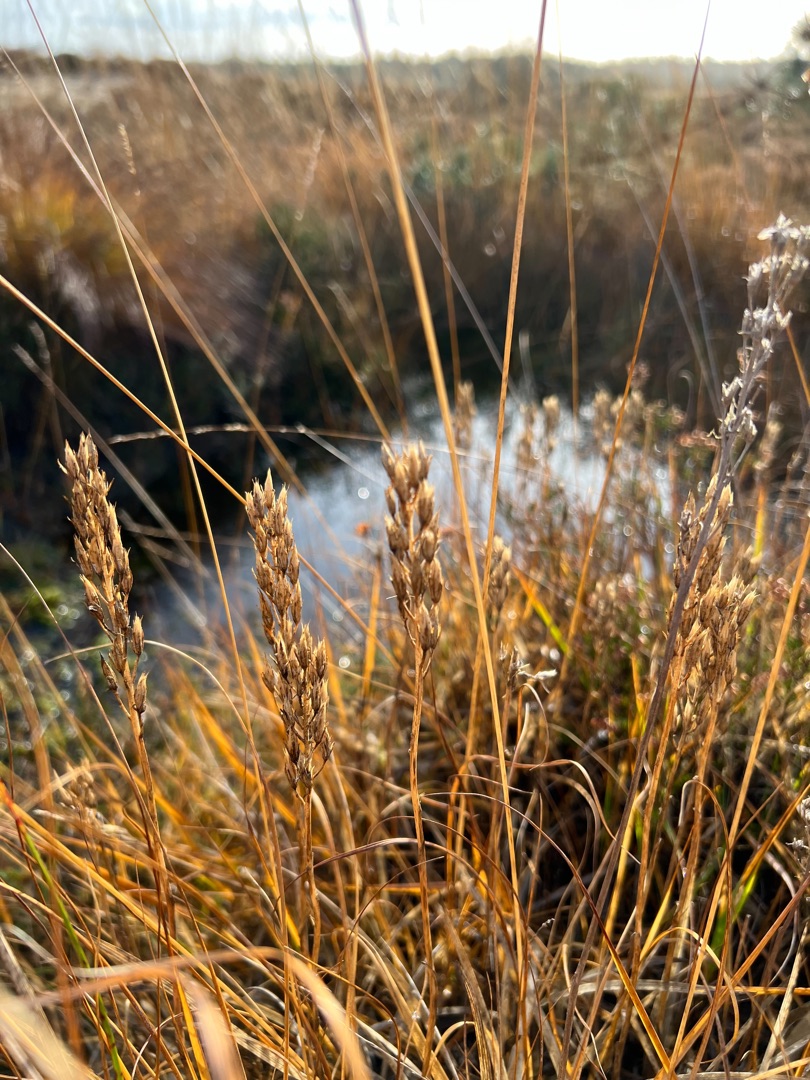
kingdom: Plantae
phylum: Tracheophyta
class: Liliopsida
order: Dioscoreales
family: Nartheciaceae
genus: Narthecium
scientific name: Narthecium ossifragum
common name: Benbræk
